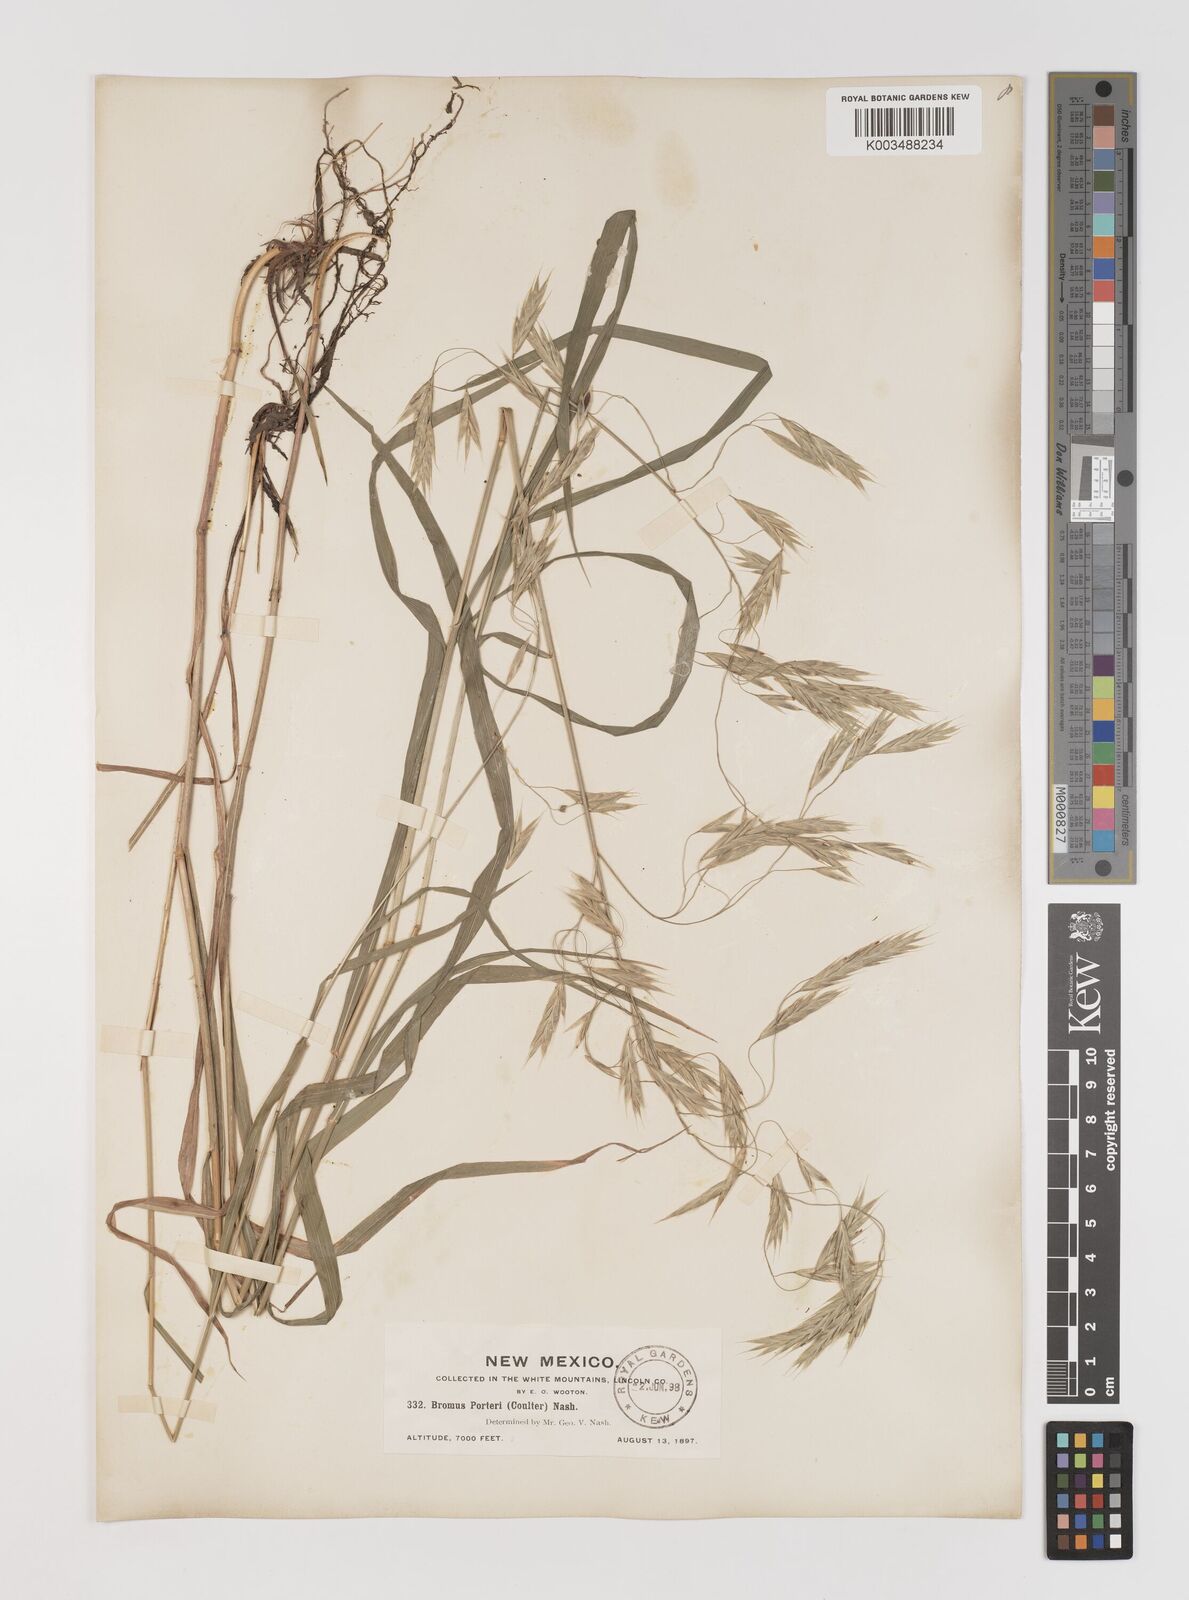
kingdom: Plantae
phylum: Tracheophyta
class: Liliopsida
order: Poales
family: Poaceae
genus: Bromus
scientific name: Bromus porteri
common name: Nodding brome
